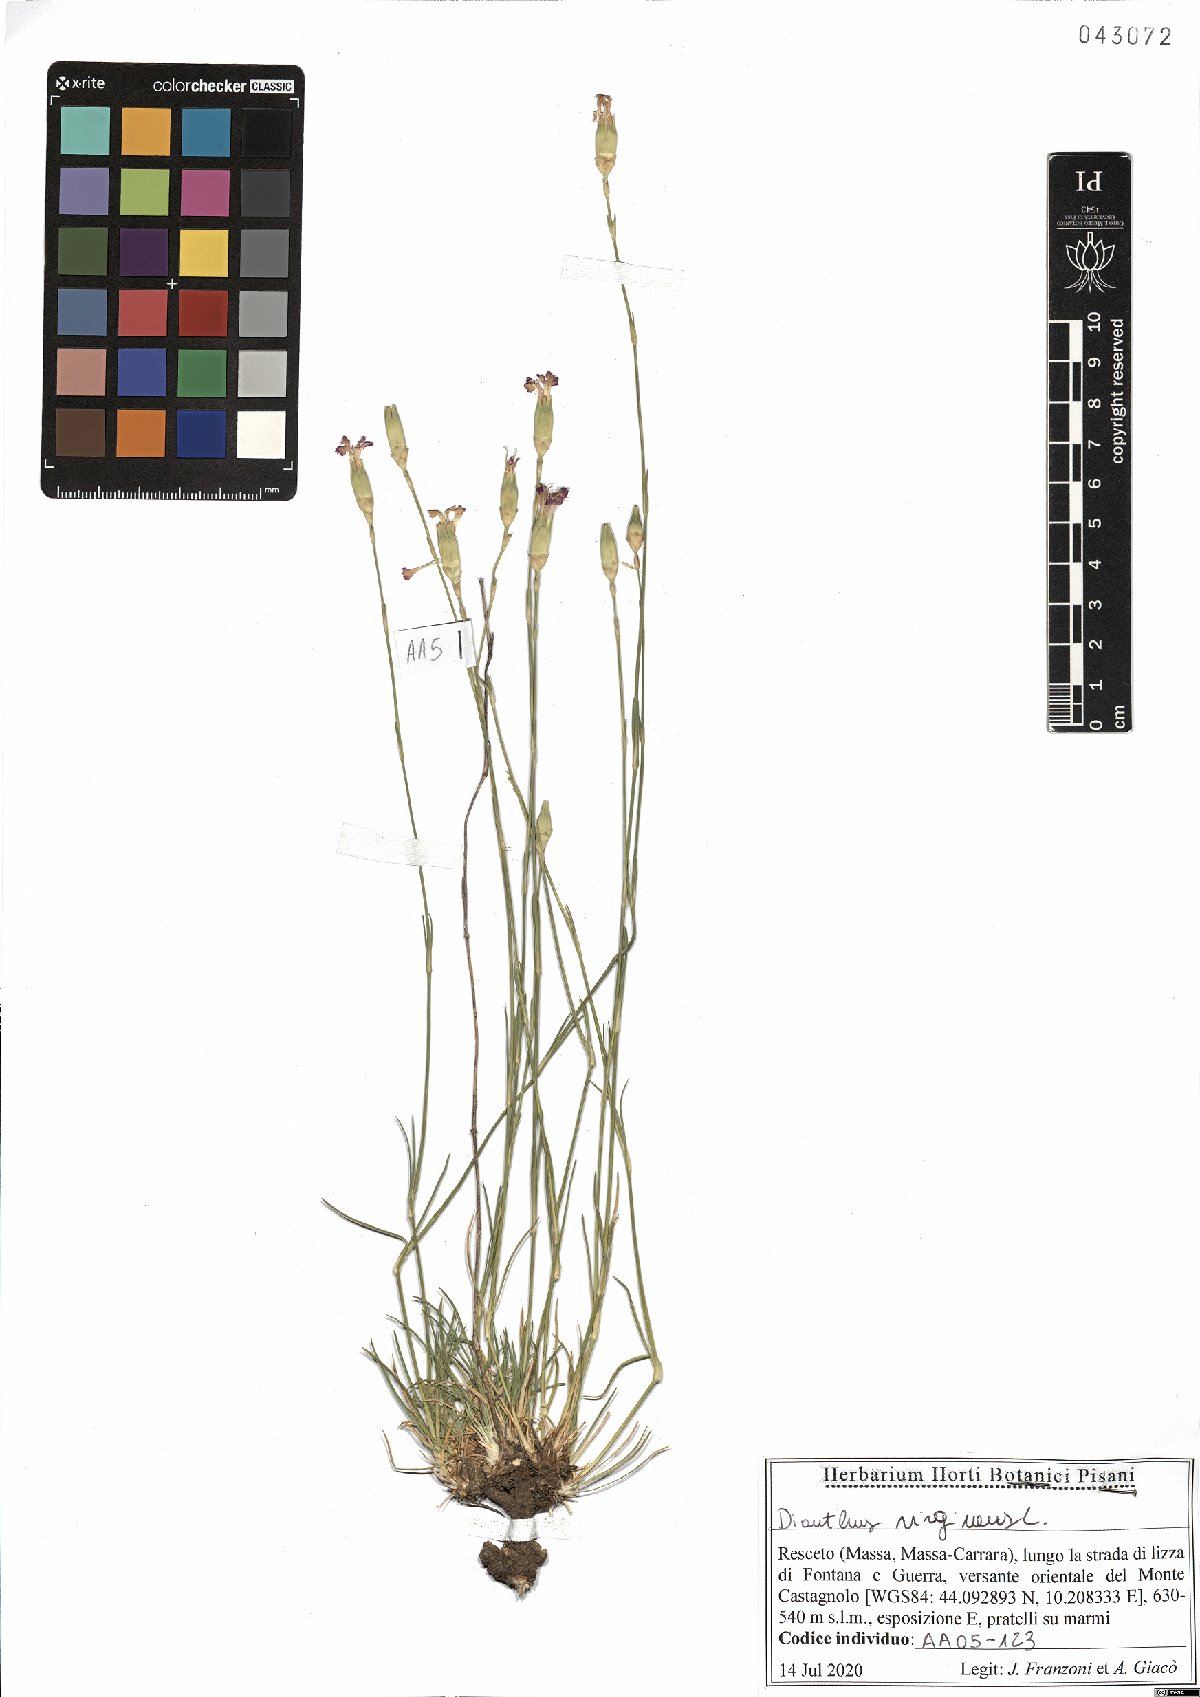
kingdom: Plantae
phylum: Tracheophyta
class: Magnoliopsida
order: Caryophyllales
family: Caryophyllaceae
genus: Dianthus
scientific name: Dianthus virgineus
